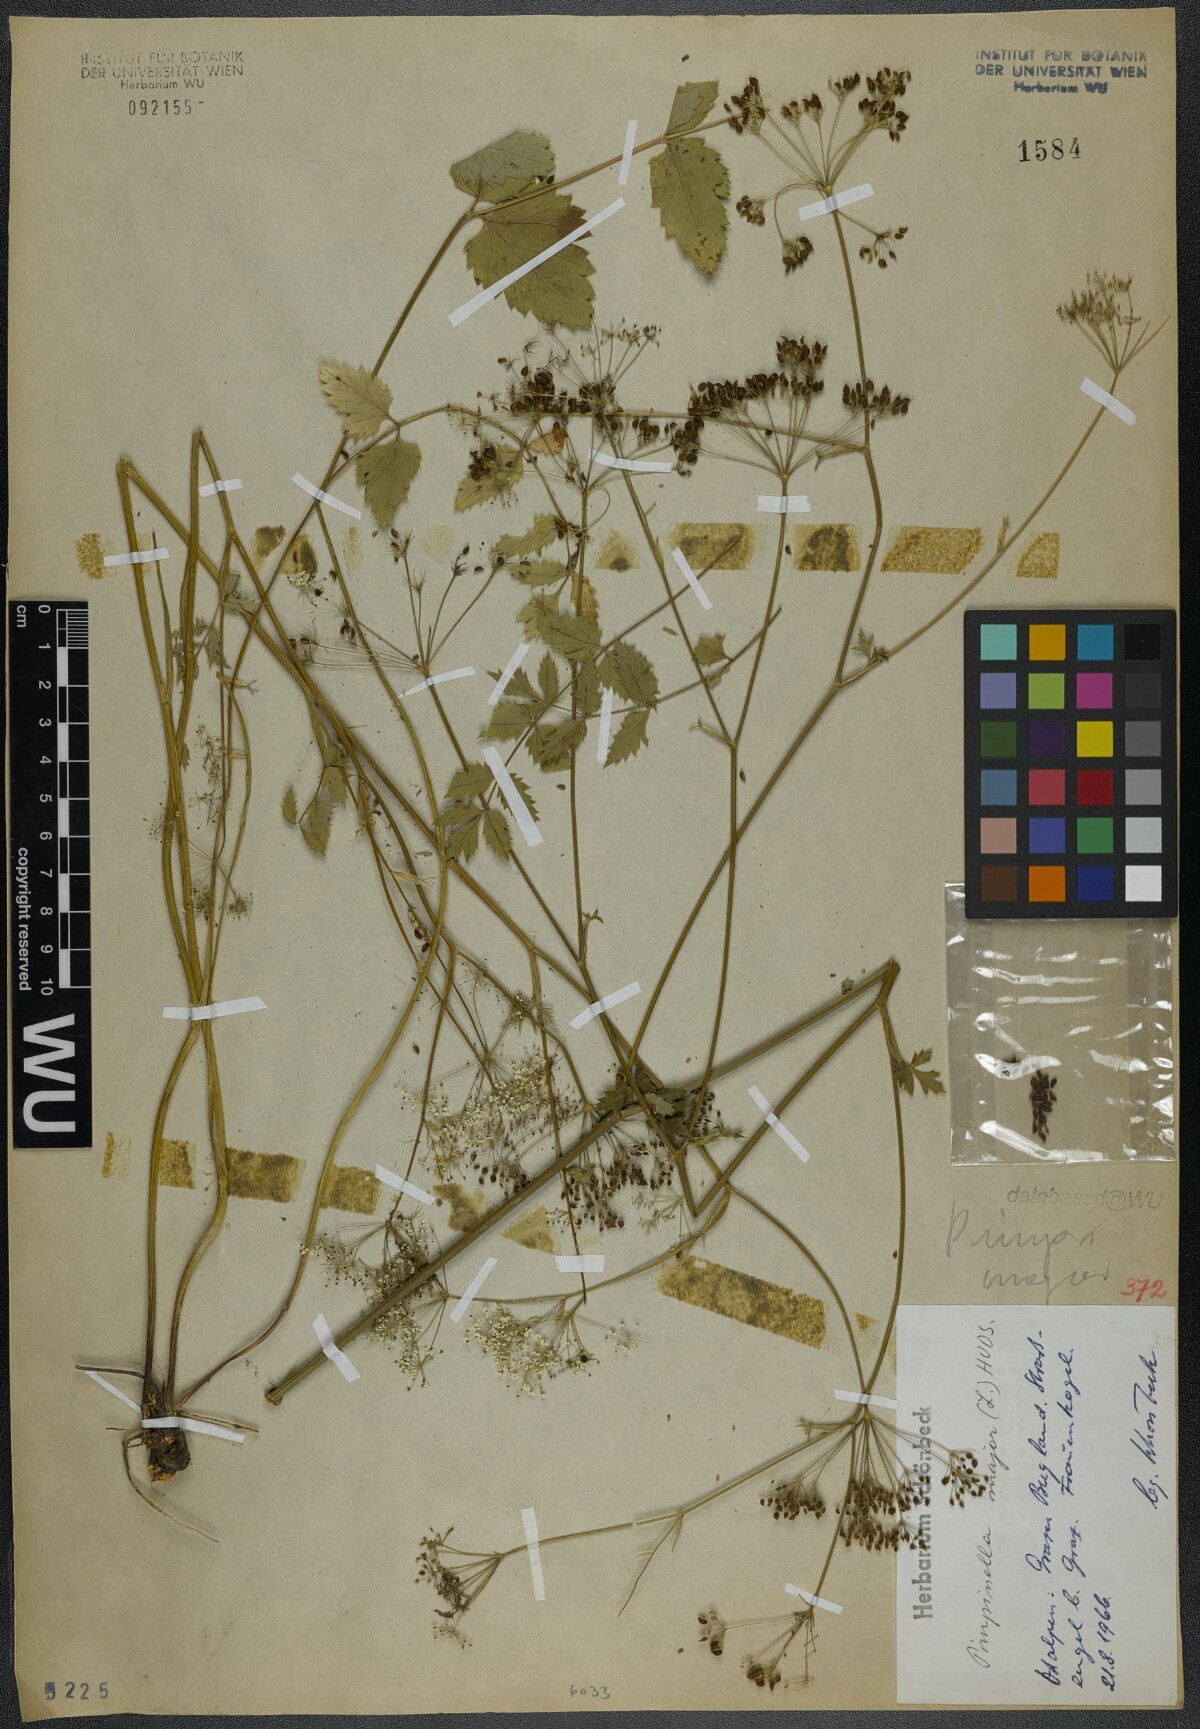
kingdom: Plantae
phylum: Tracheophyta
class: Magnoliopsida
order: Apiales
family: Apiaceae
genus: Pimpinella
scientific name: Pimpinella major
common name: Greater burnet-saxifrage
